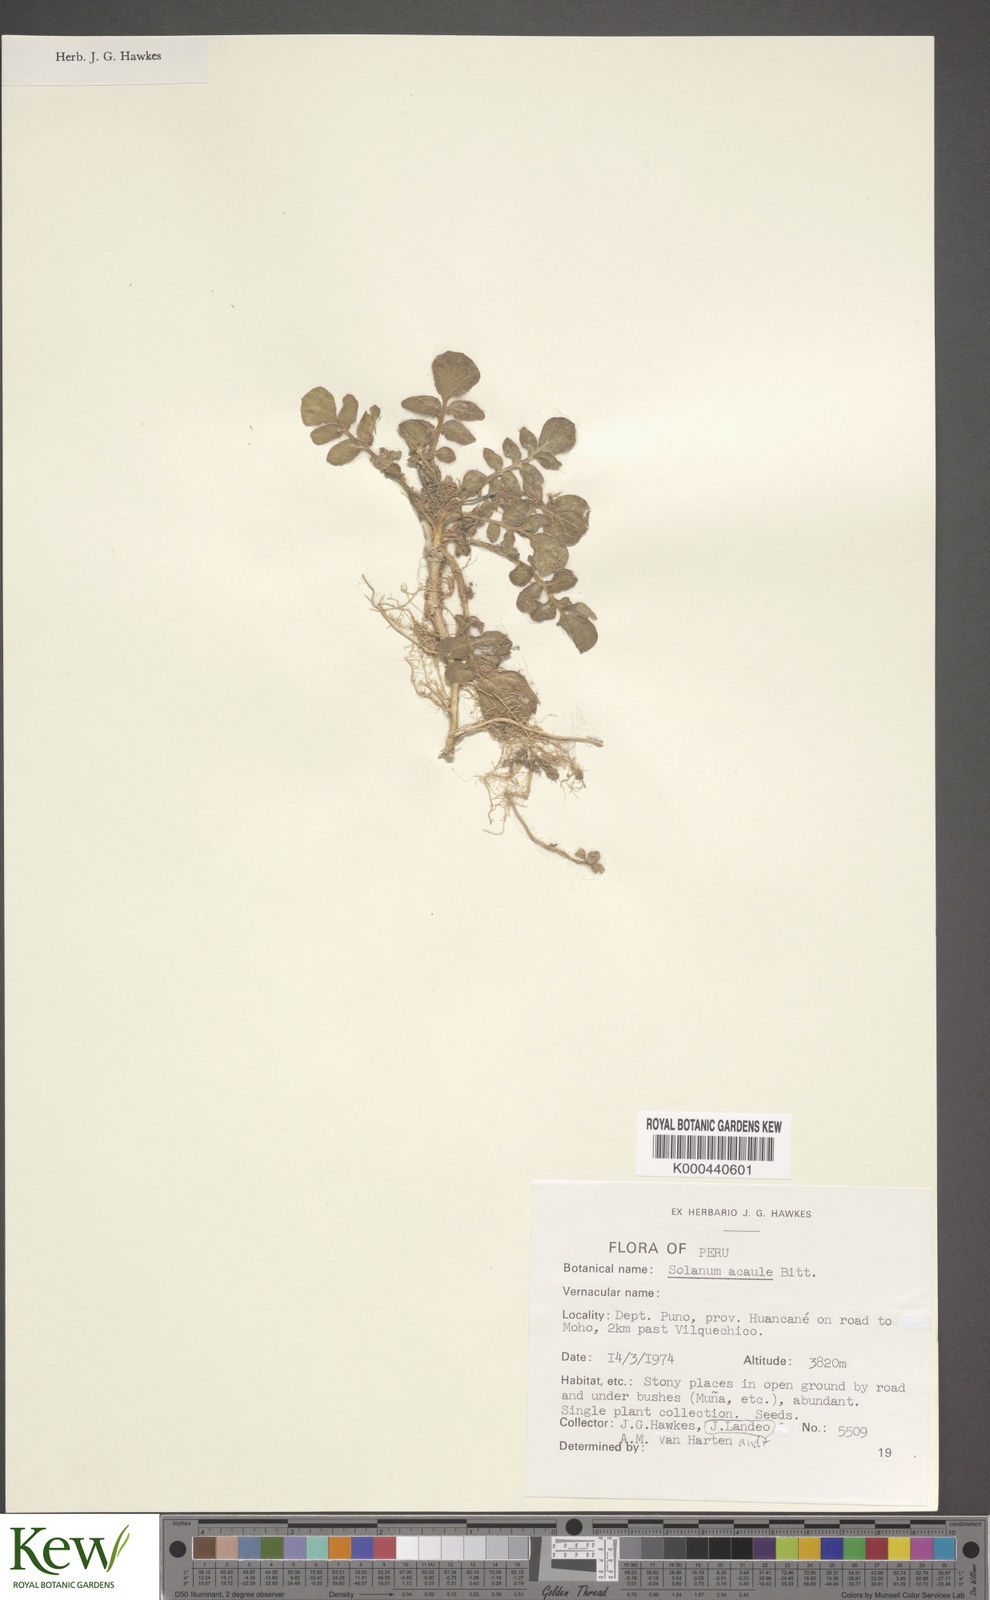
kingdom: Plantae
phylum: Tracheophyta
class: Magnoliopsida
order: Solanales
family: Solanaceae
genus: Solanum
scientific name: Solanum acaule
